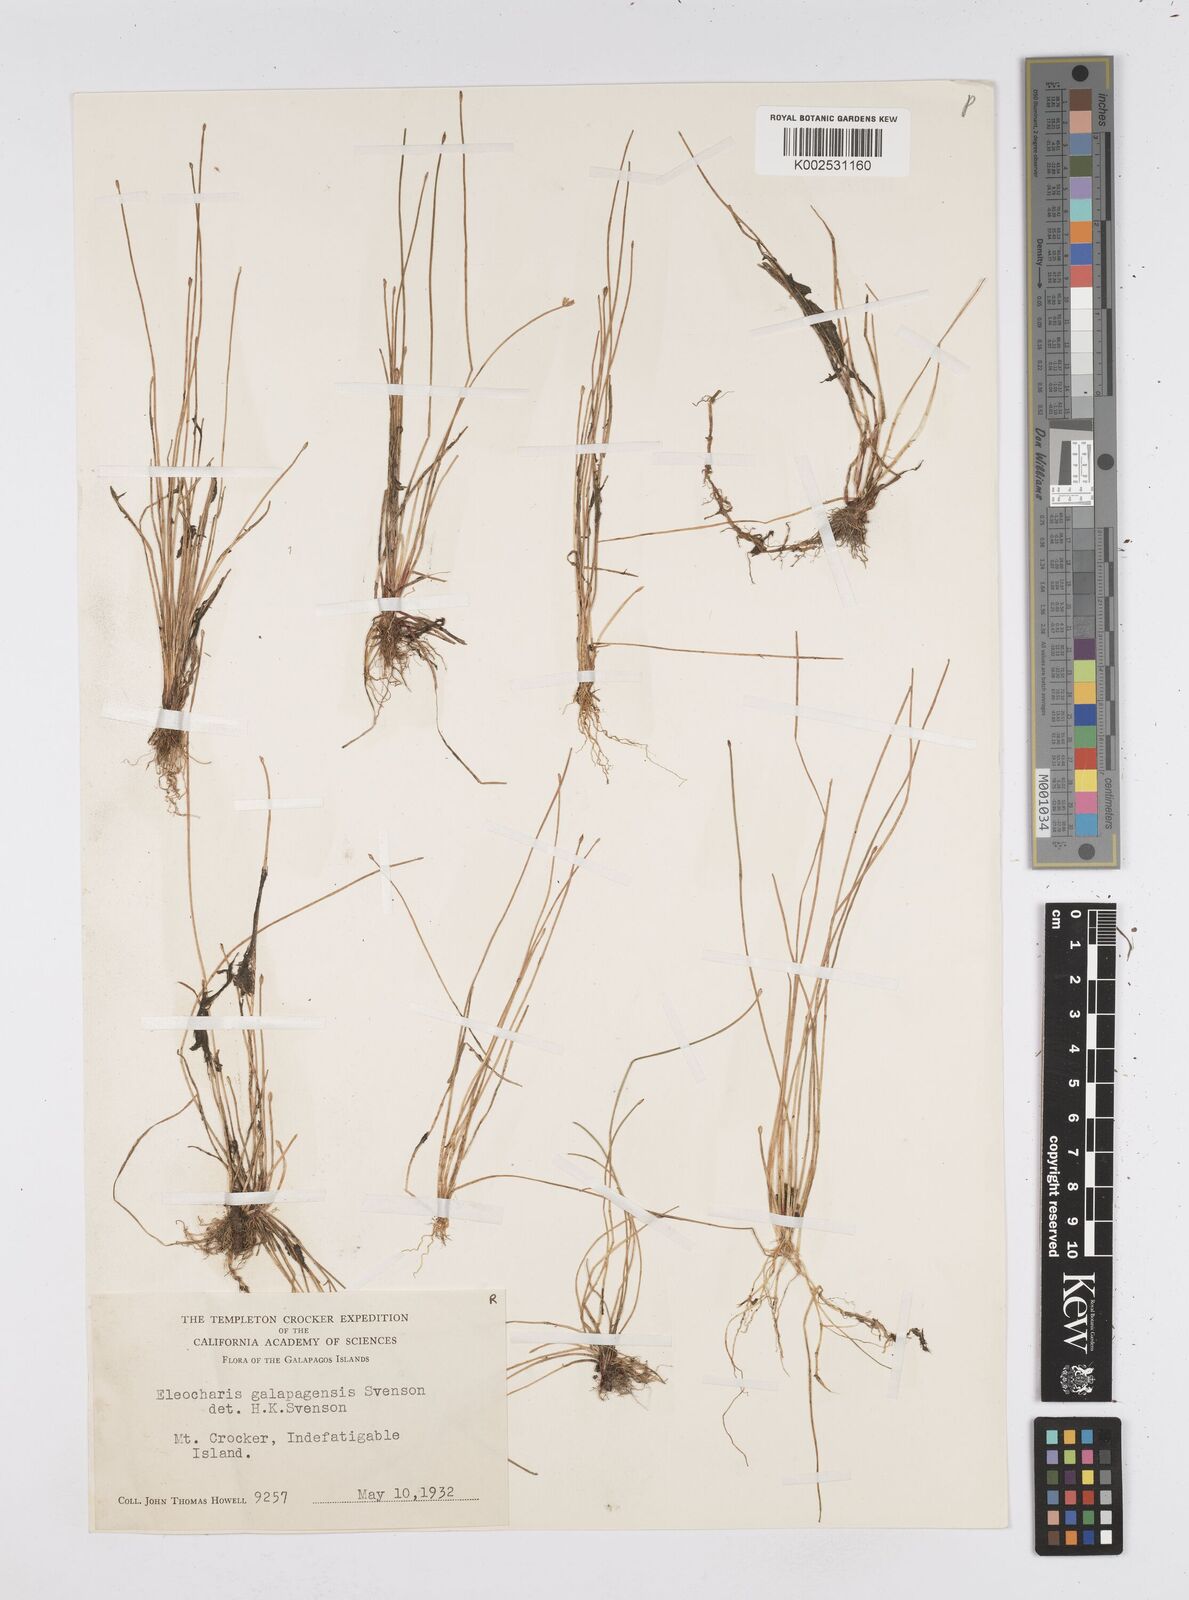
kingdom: Plantae
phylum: Tracheophyta
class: Liliopsida
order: Poales
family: Cyperaceae
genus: Eleocharis
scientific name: Eleocharis sellowiana
